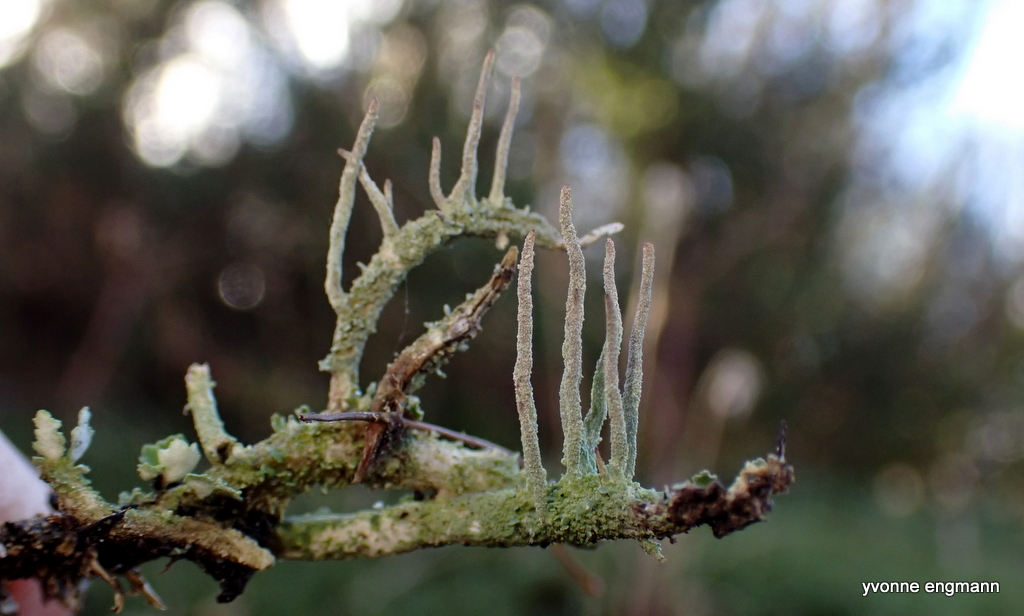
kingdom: Fungi
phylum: Ascomycota
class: Lecanoromycetes
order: Lecanorales
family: Cladoniaceae
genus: Cladonia
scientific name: Cladonia
